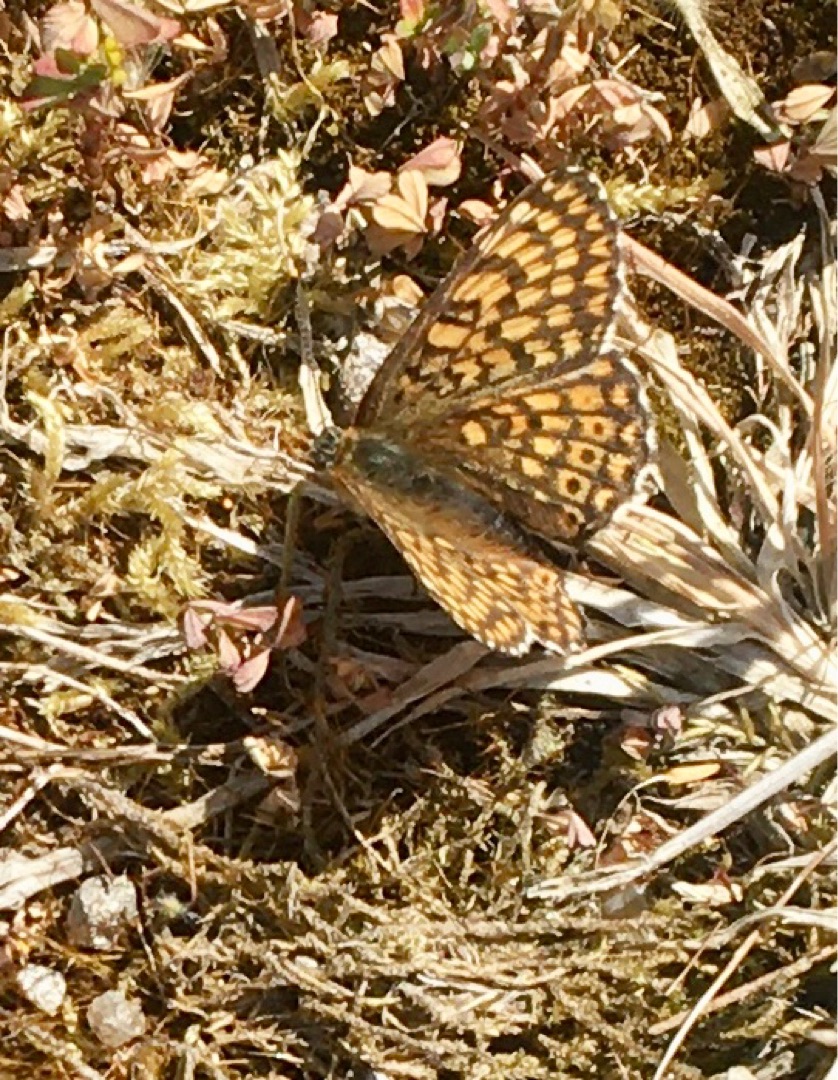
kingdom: Animalia
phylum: Arthropoda
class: Insecta
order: Lepidoptera
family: Nymphalidae
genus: Melitaea
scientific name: Melitaea cinxia
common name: Okkergul pletvinge
